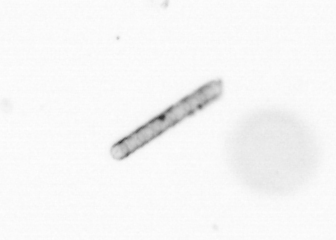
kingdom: Chromista
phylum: Ochrophyta
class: Bacillariophyceae
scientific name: Bacillariophyceae
